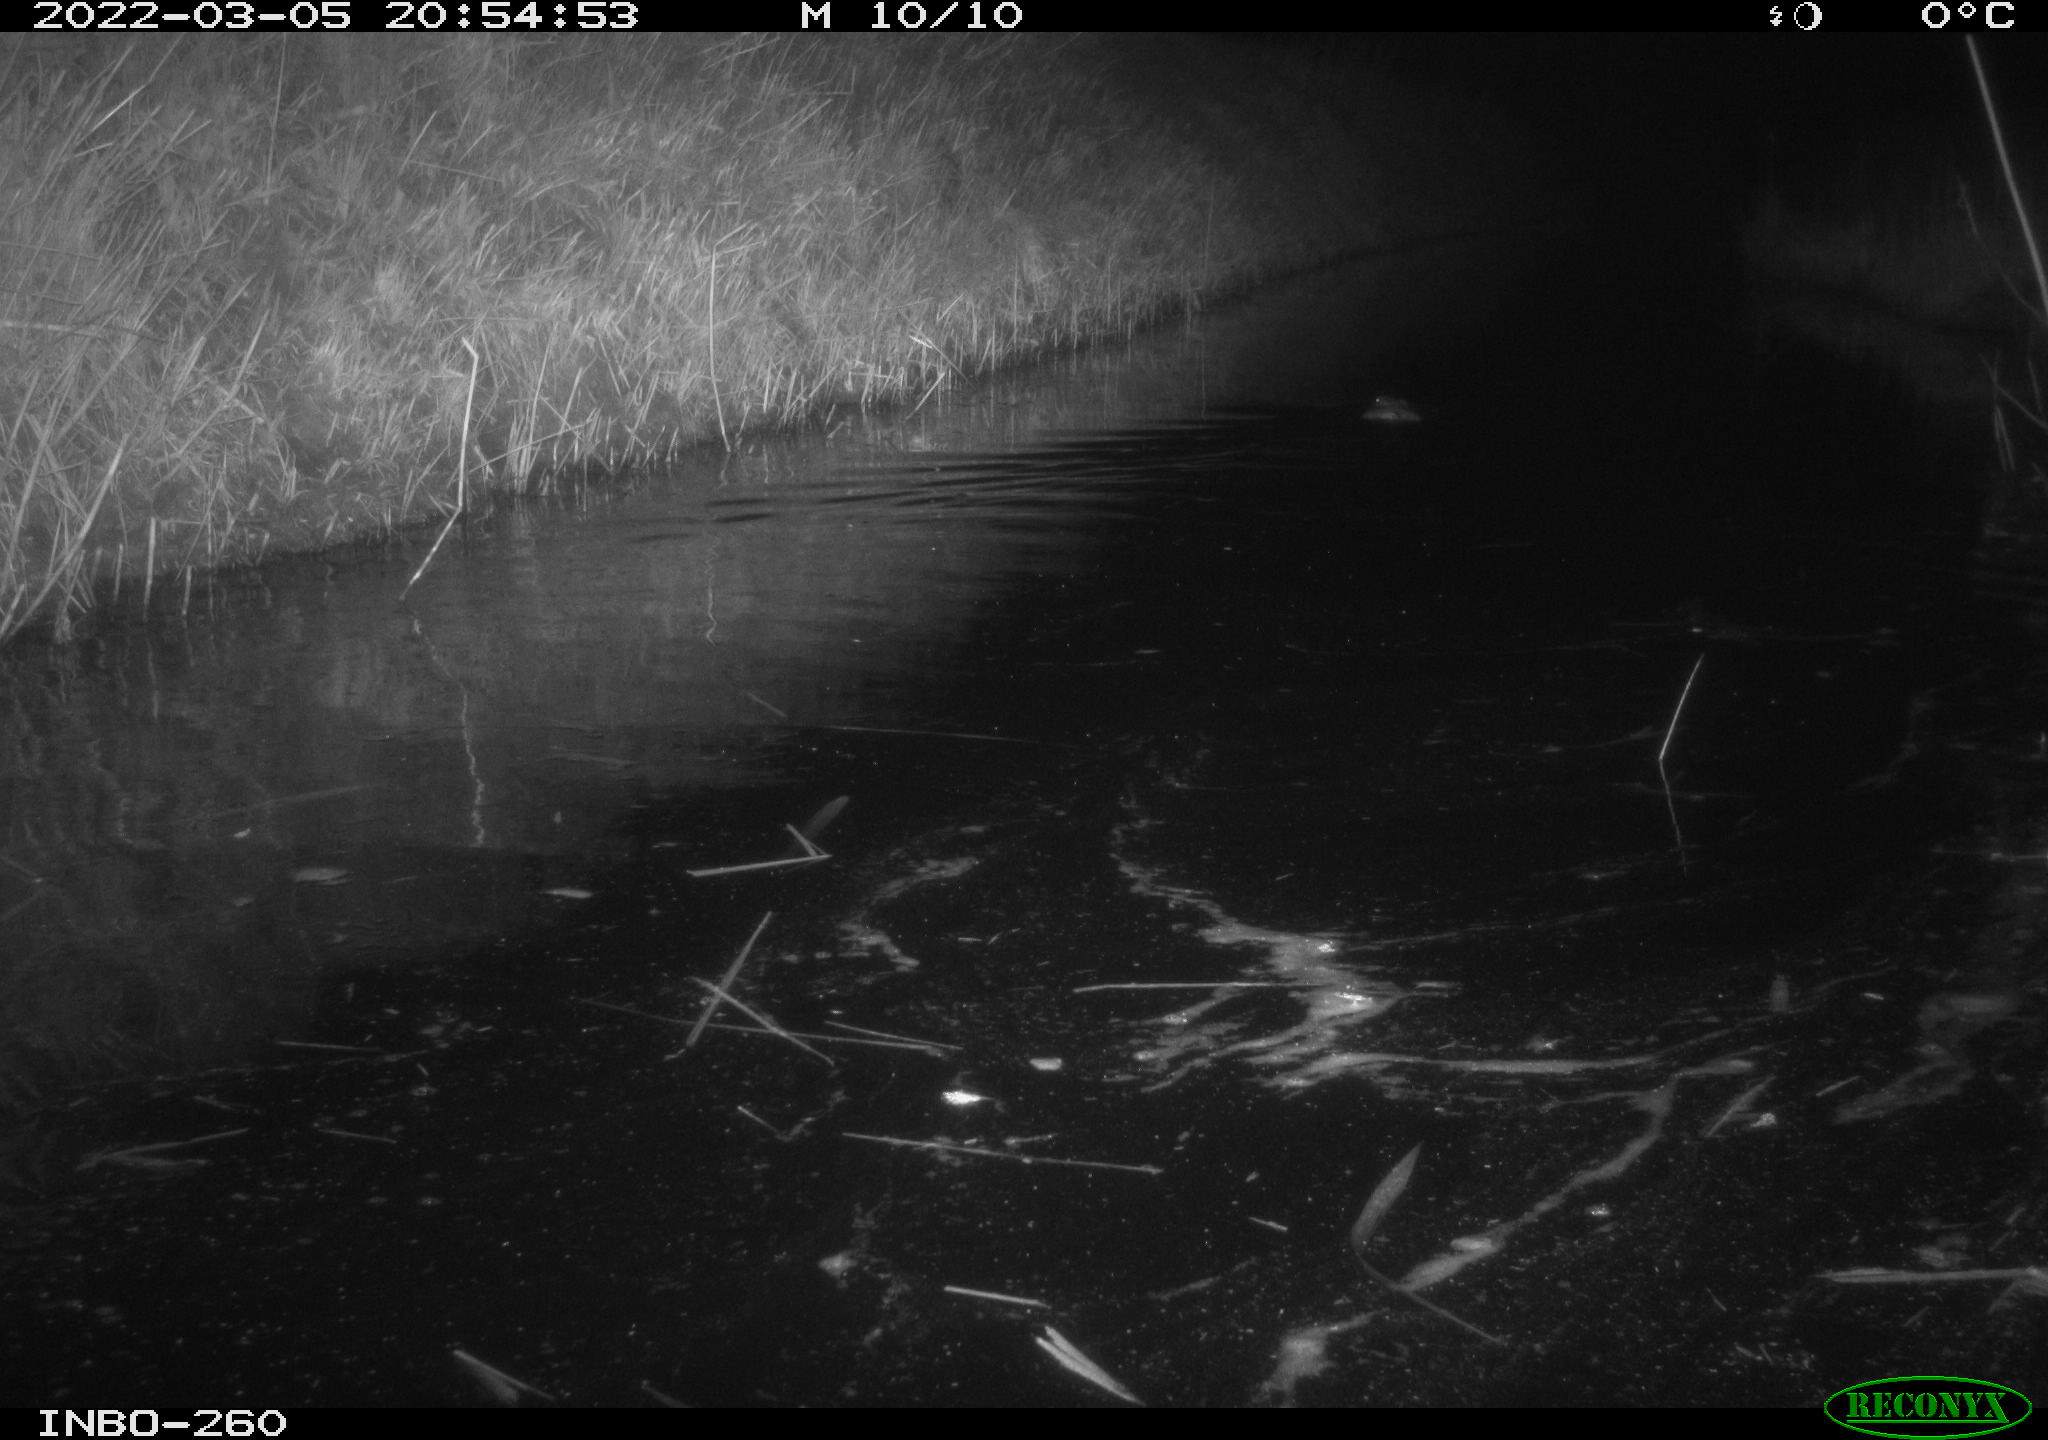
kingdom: Animalia
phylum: Chordata
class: Mammalia
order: Rodentia
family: Cricetidae
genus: Ondatra
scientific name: Ondatra zibethicus
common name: Muskrat
